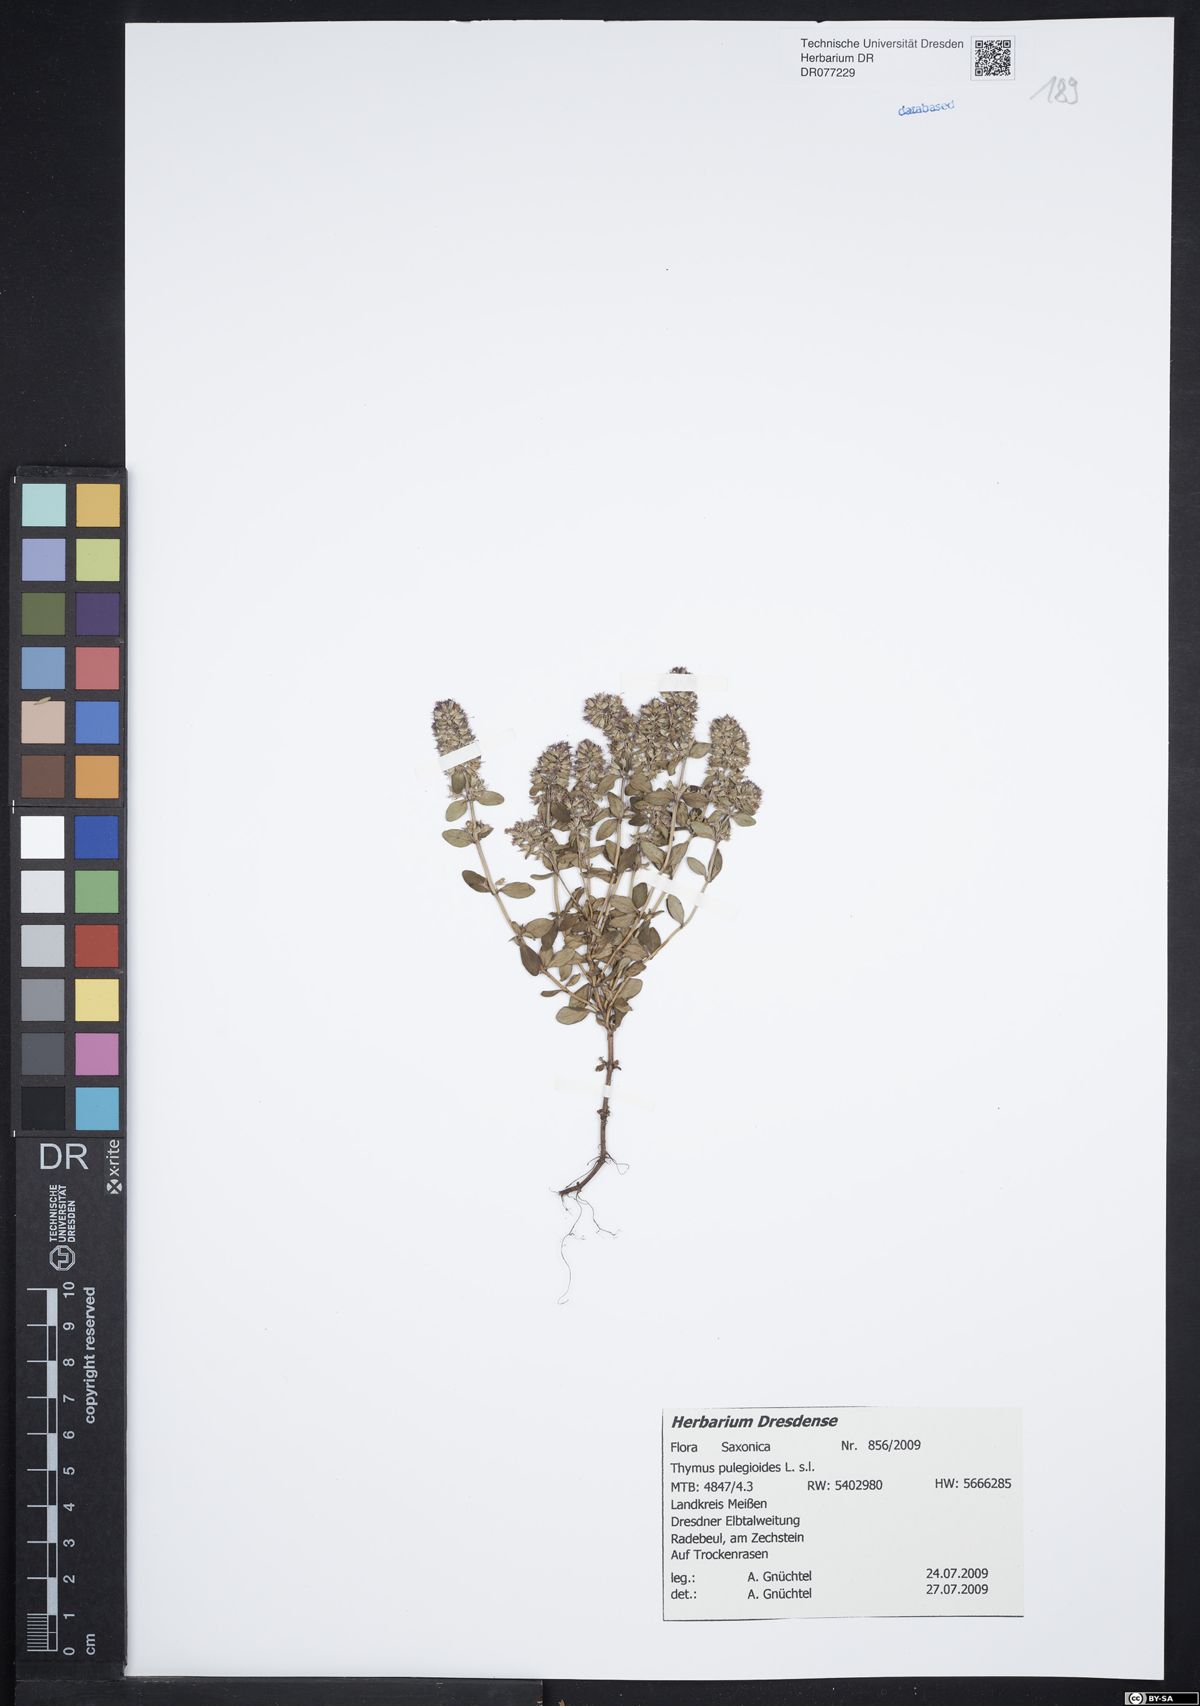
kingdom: Plantae
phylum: Tracheophyta
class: Magnoliopsida
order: Lamiales
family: Lamiaceae
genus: Thymus
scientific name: Thymus pulegioides
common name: Large thyme
